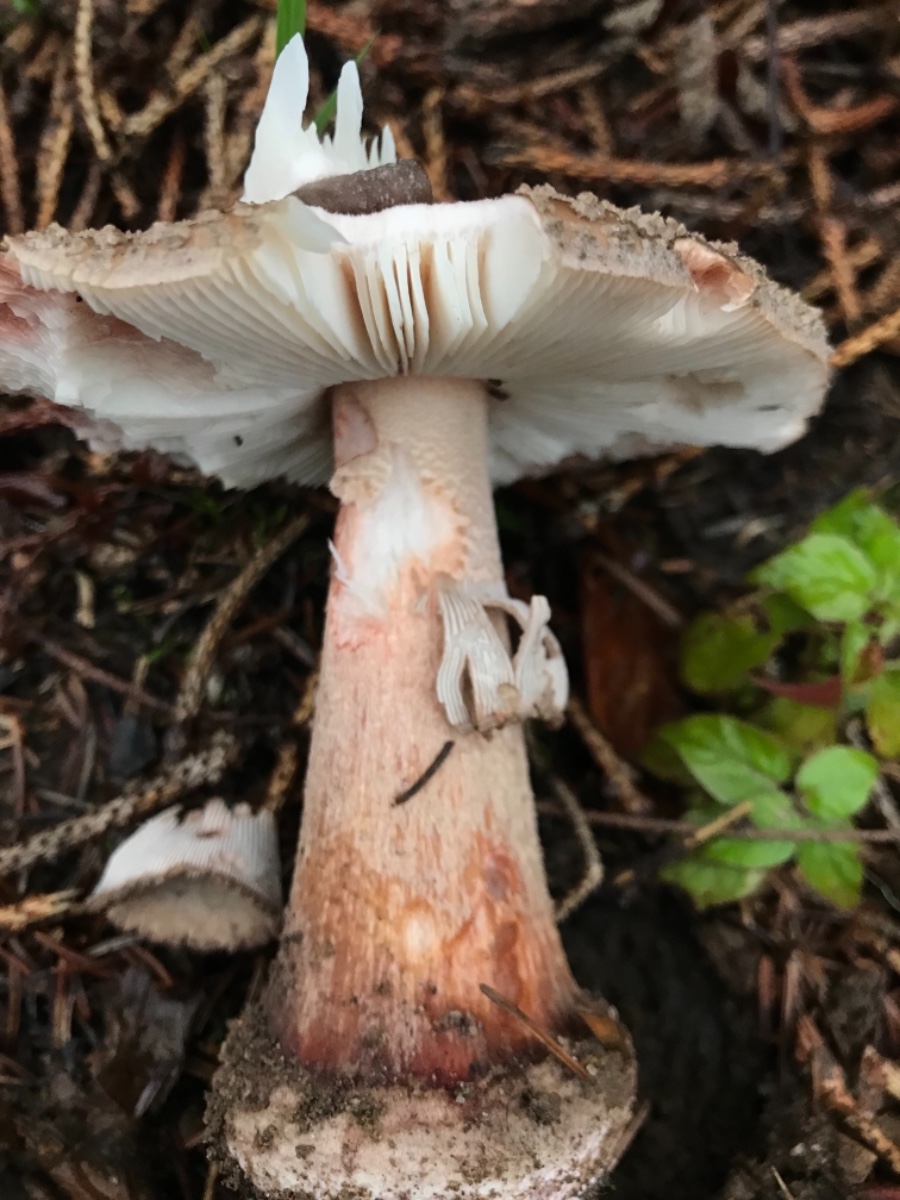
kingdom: Fungi
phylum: Basidiomycota
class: Agaricomycetes
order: Agaricales
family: Amanitaceae
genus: Amanita
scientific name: Amanita rubescens
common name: rødmende fluesvamp
